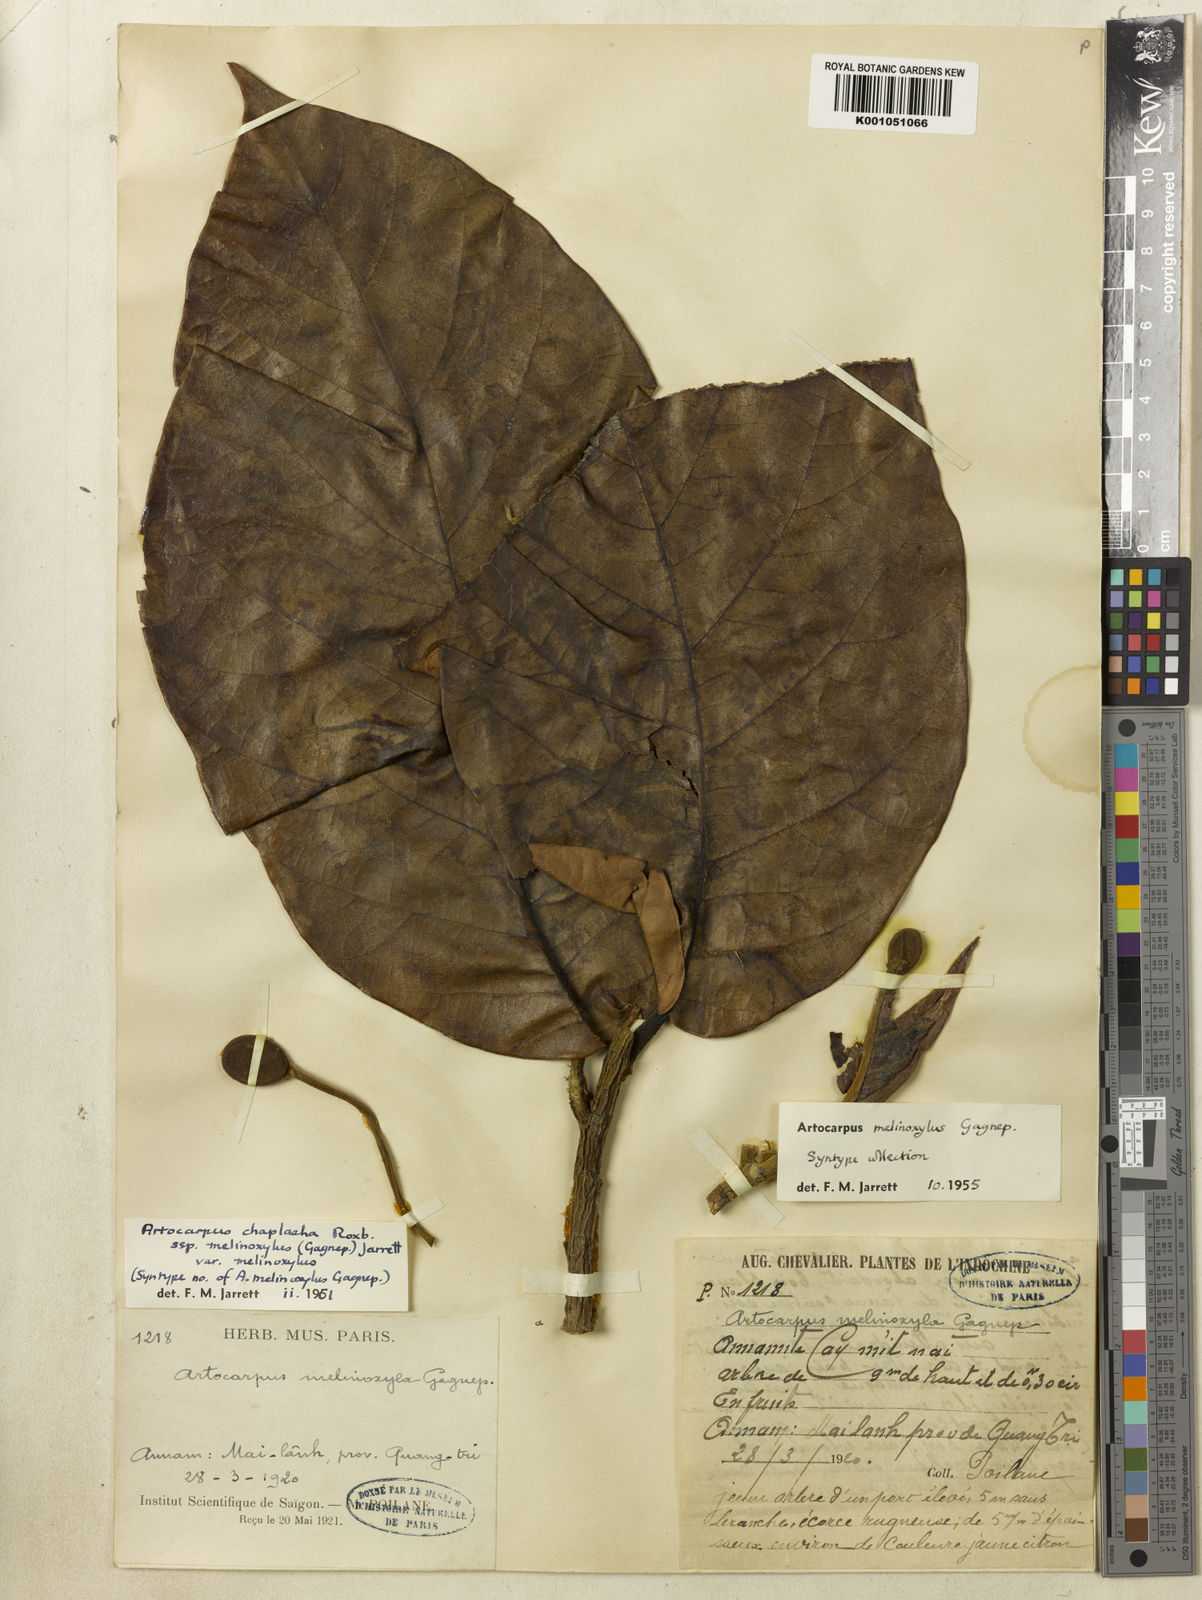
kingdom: Plantae
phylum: Tracheophyta
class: Magnoliopsida
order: Rosales
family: Moraceae
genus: Artocarpus
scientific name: Artocarpus chama
